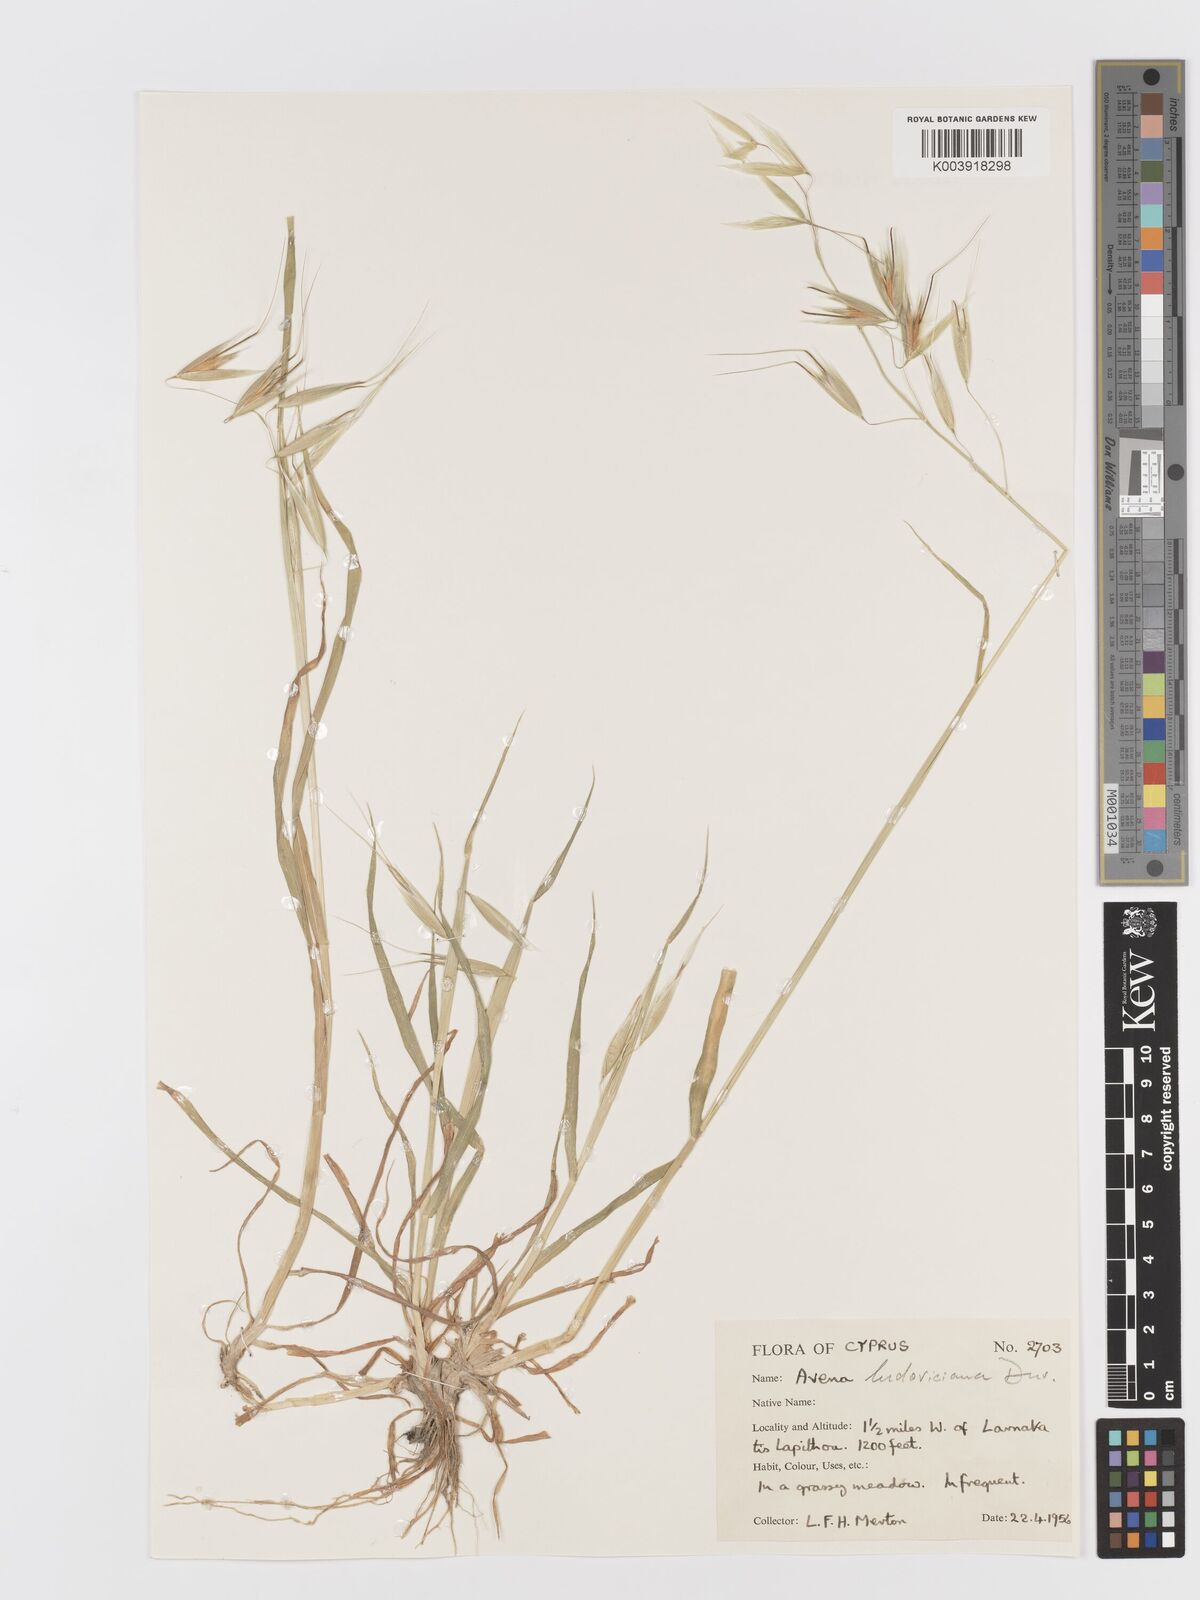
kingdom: Plantae
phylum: Tracheophyta
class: Liliopsida
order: Poales
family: Poaceae
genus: Avena
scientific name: Avena sterilis
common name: Animated oat
